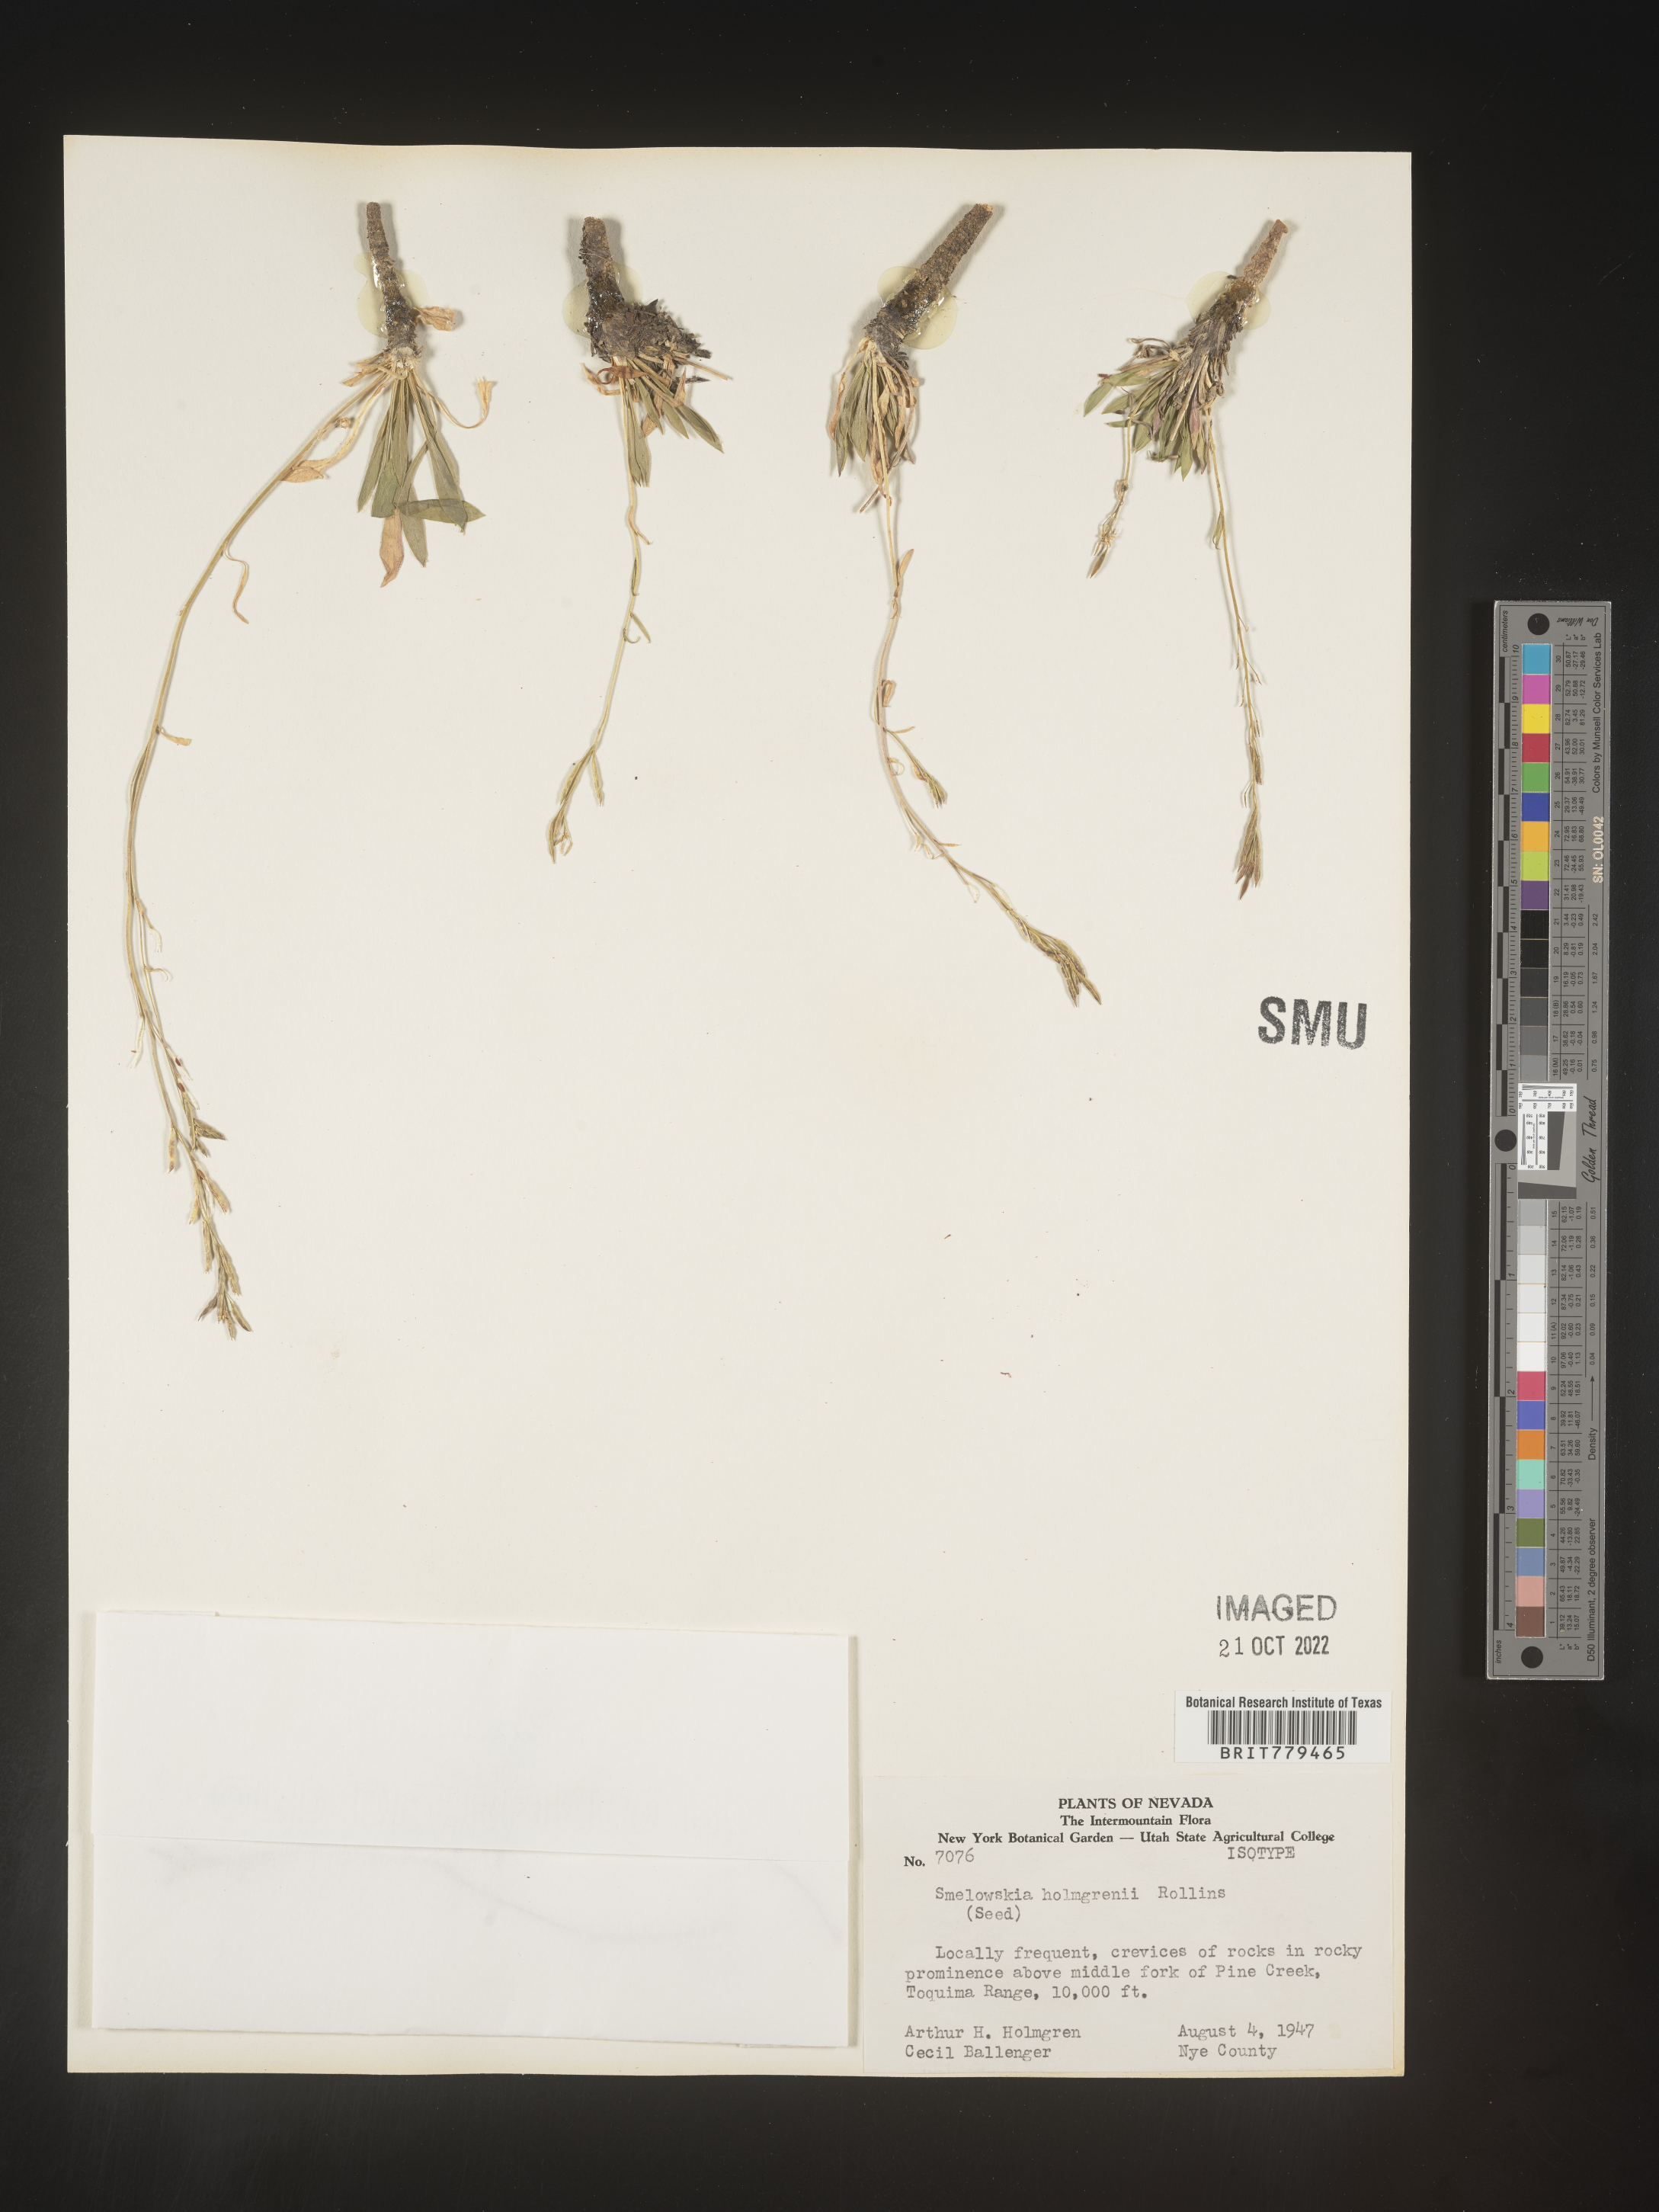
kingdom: Plantae
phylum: Tracheophyta
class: Magnoliopsida
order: Brassicales
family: Brassicaceae
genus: Smelowskia
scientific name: Smelowskia
